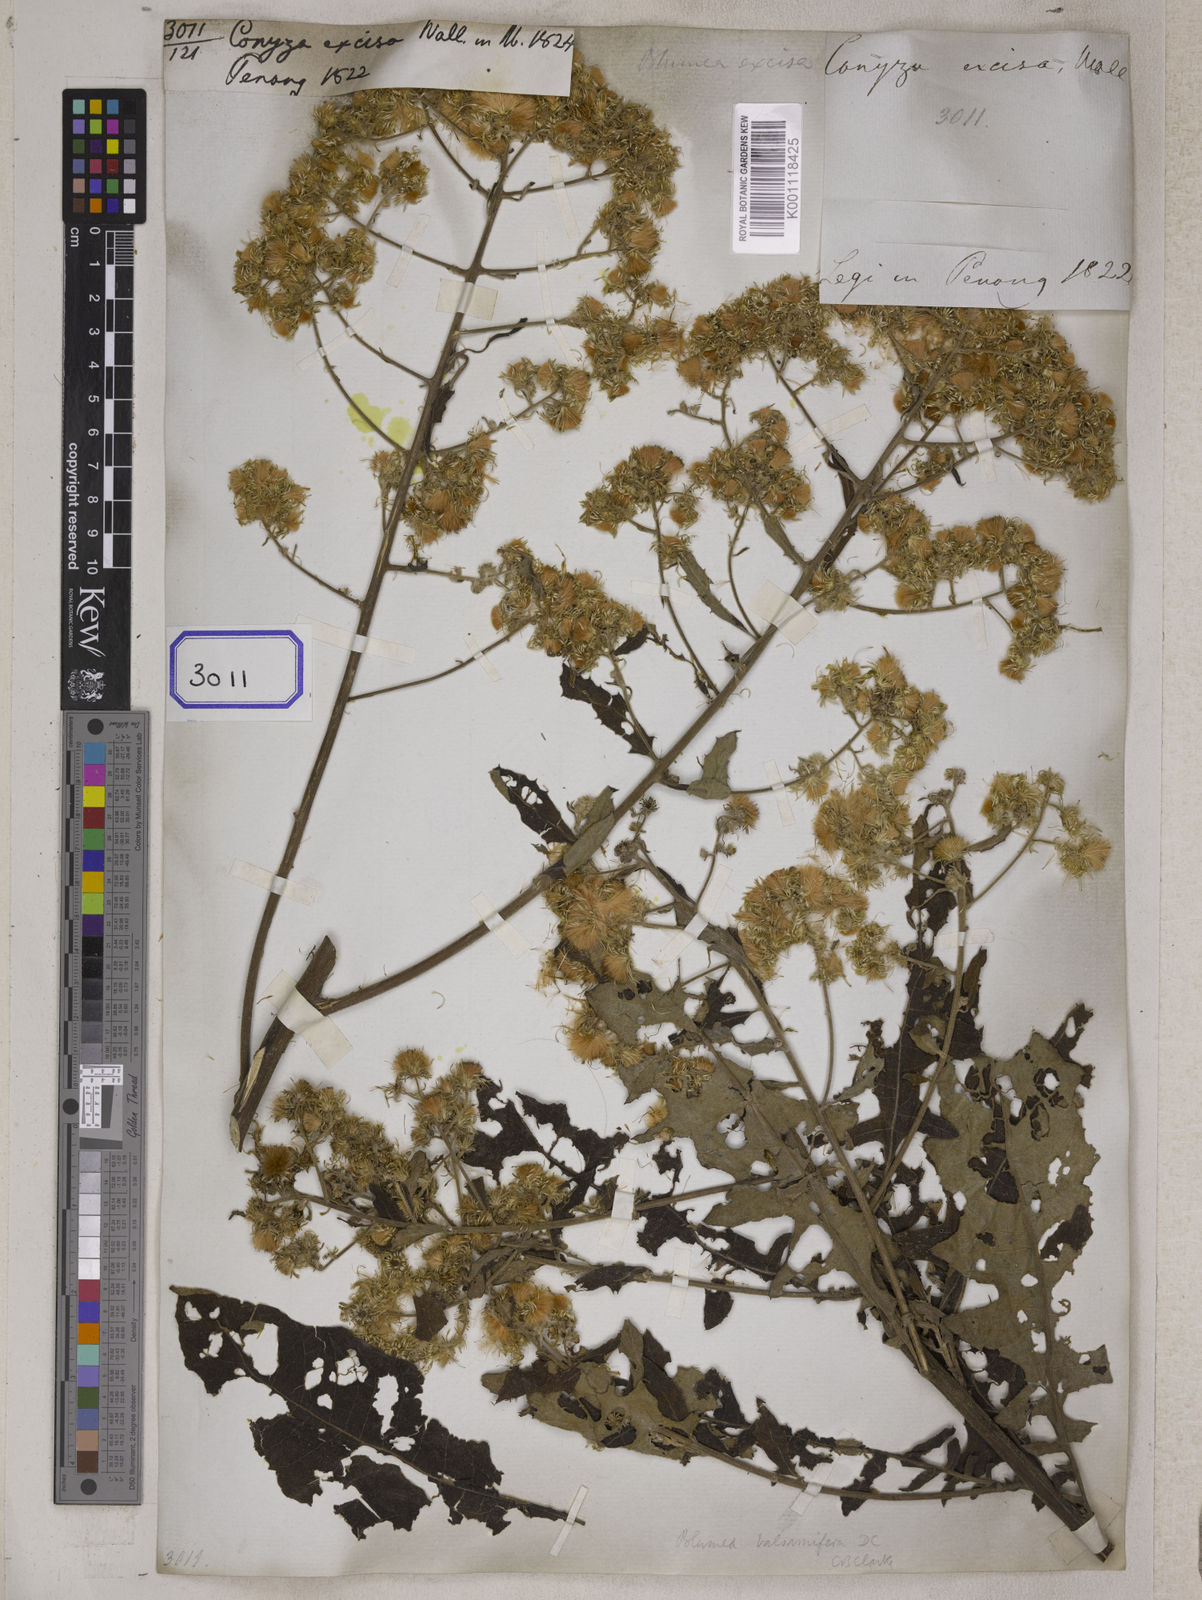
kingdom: Plantae
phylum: Tracheophyta
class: Magnoliopsida
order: Asterales
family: Asteraceae
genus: Blumea
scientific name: Blumea densiflora
